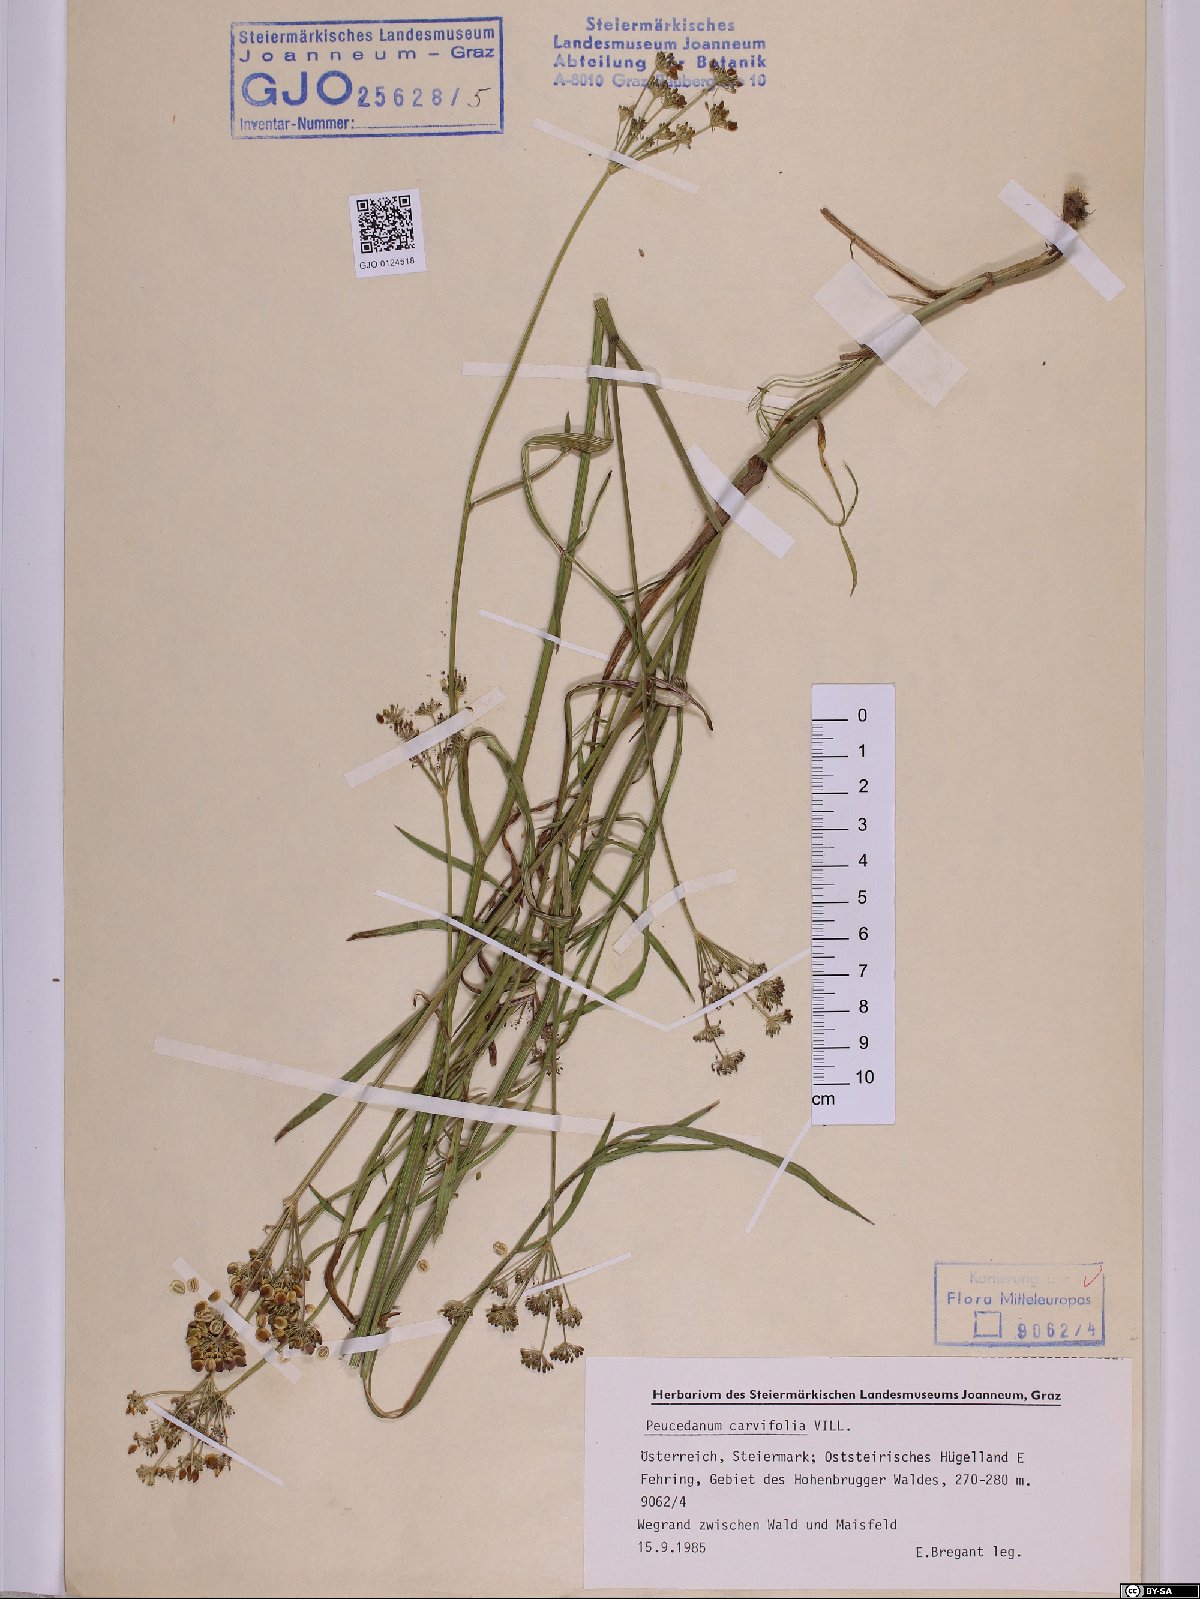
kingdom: Plantae
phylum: Tracheophyta
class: Magnoliopsida
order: Apiales
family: Apiaceae
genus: Dichoropetalum
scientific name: Dichoropetalum carvifolia
